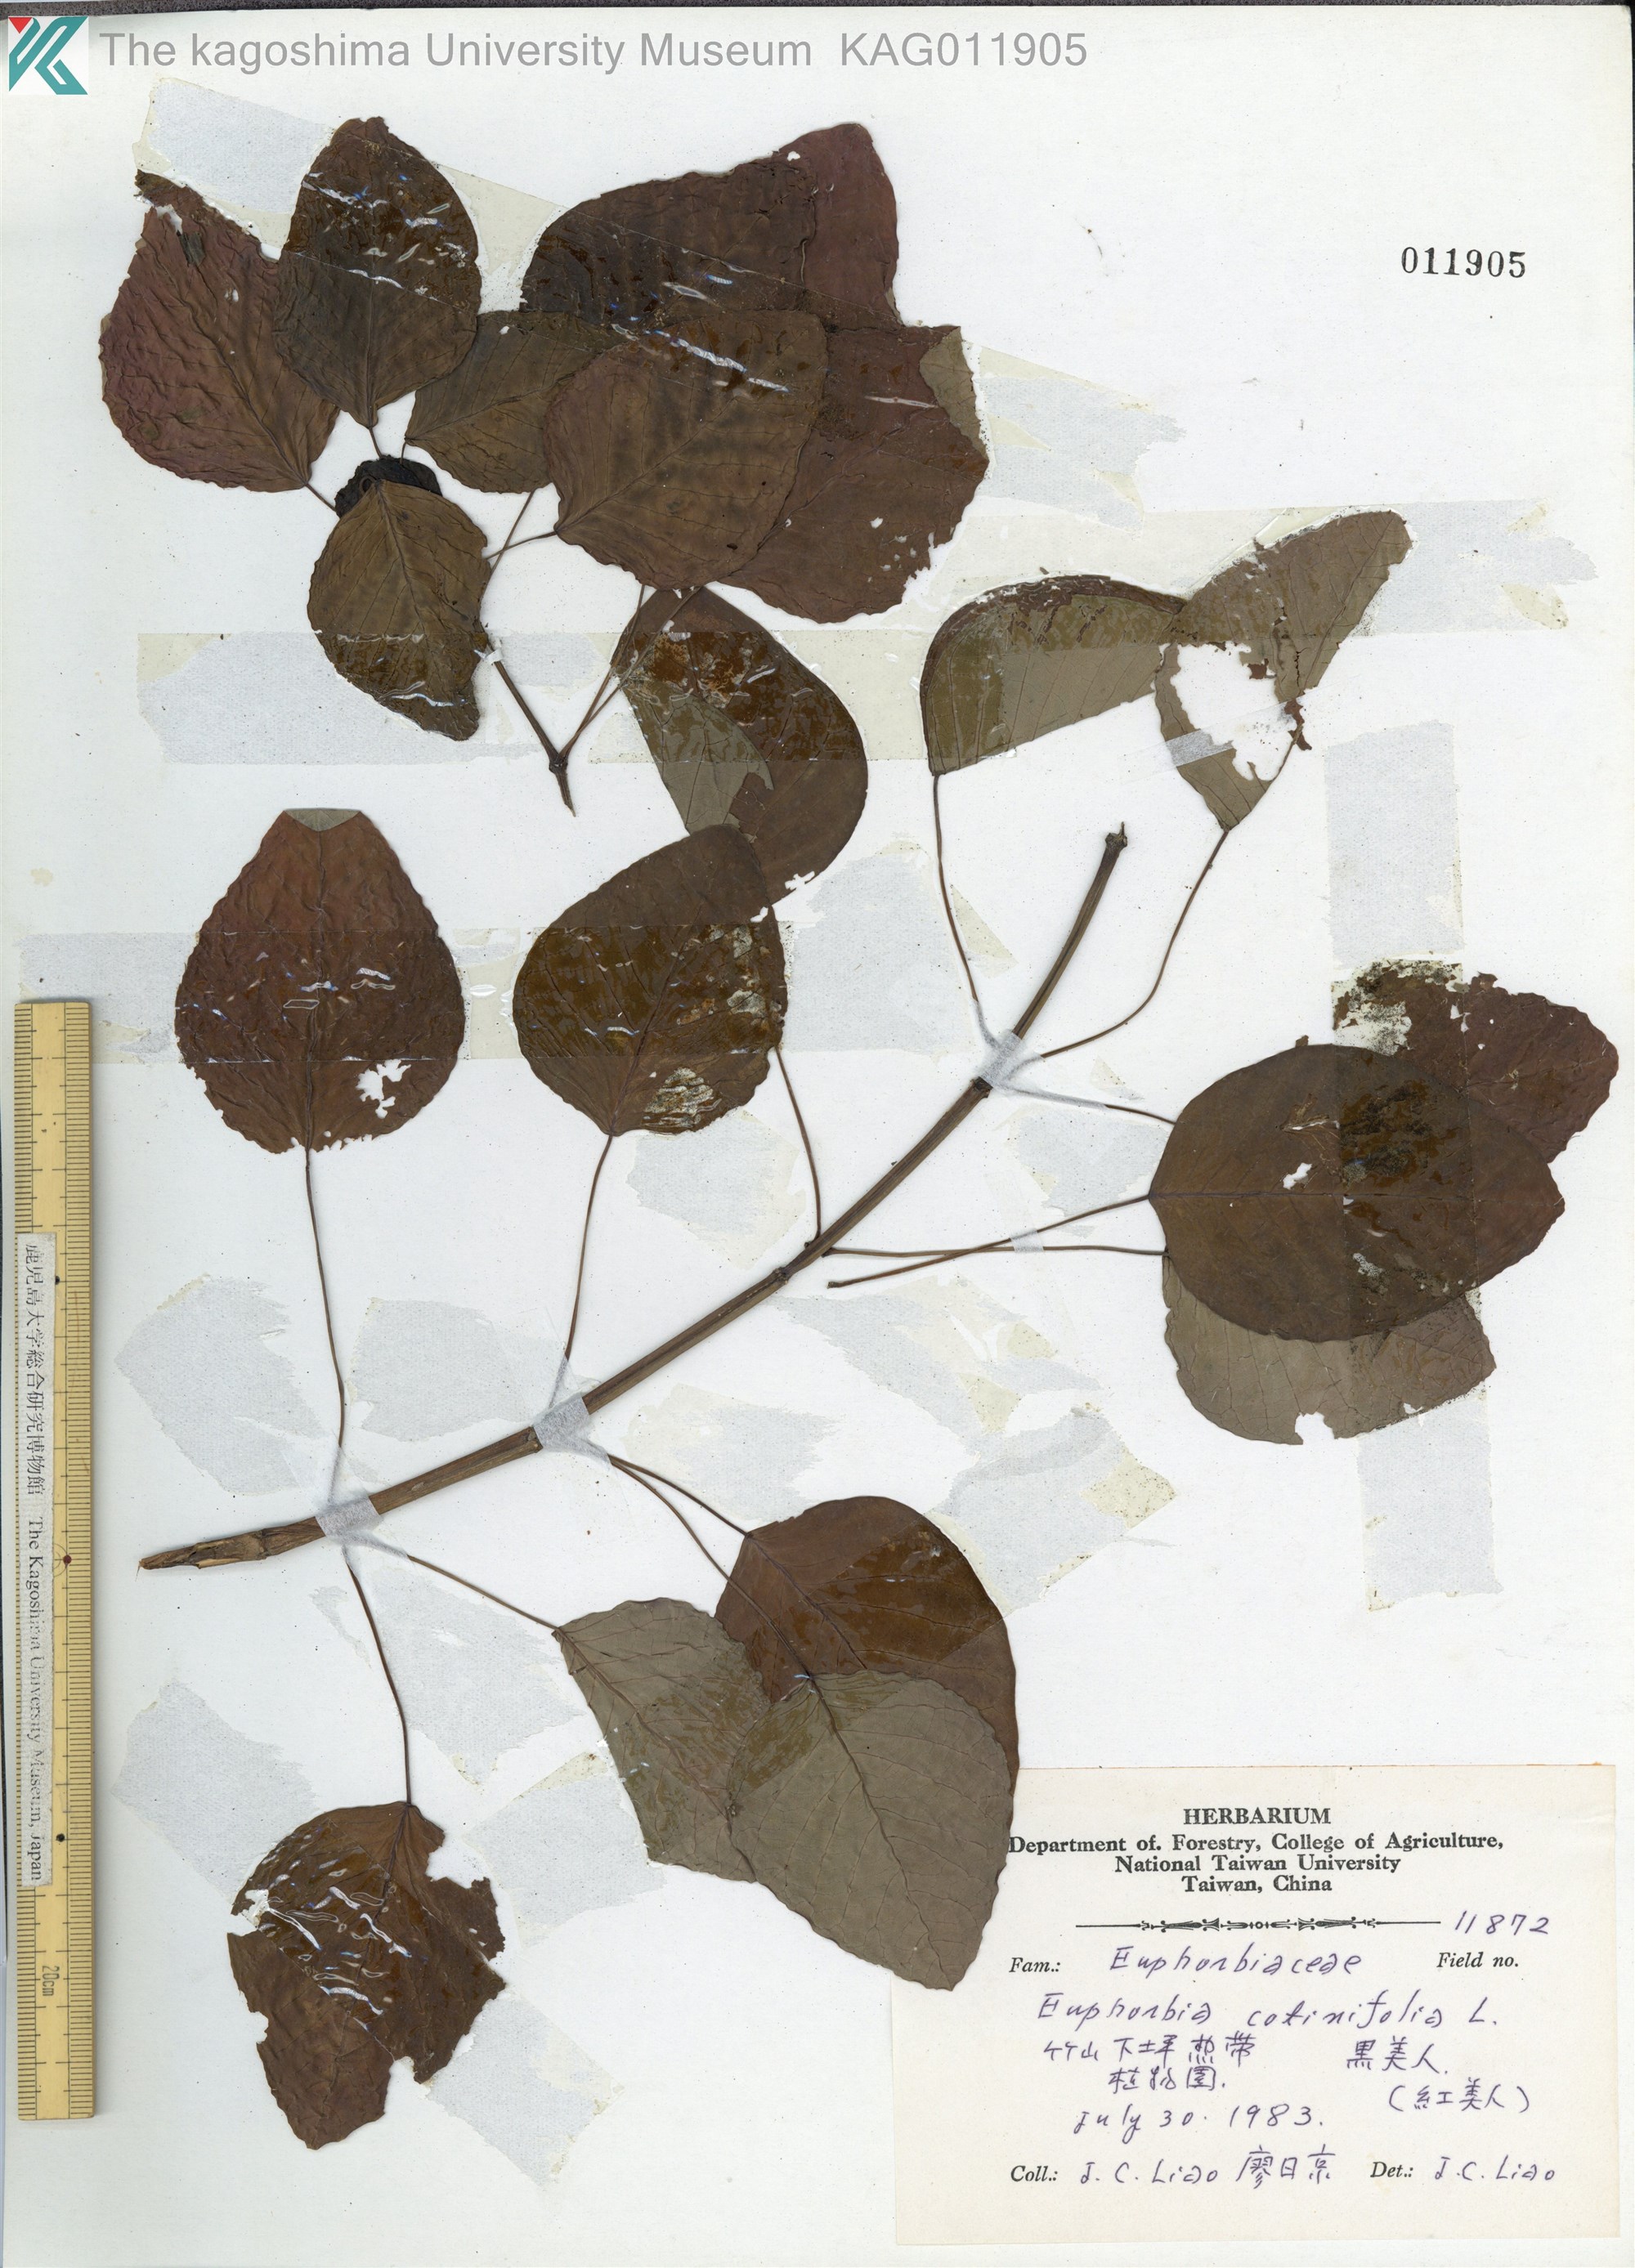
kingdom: Plantae
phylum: Tracheophyta
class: Magnoliopsida
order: Malpighiales
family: Euphorbiaceae
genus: Euphorbia
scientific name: Euphorbia cotinifolia
